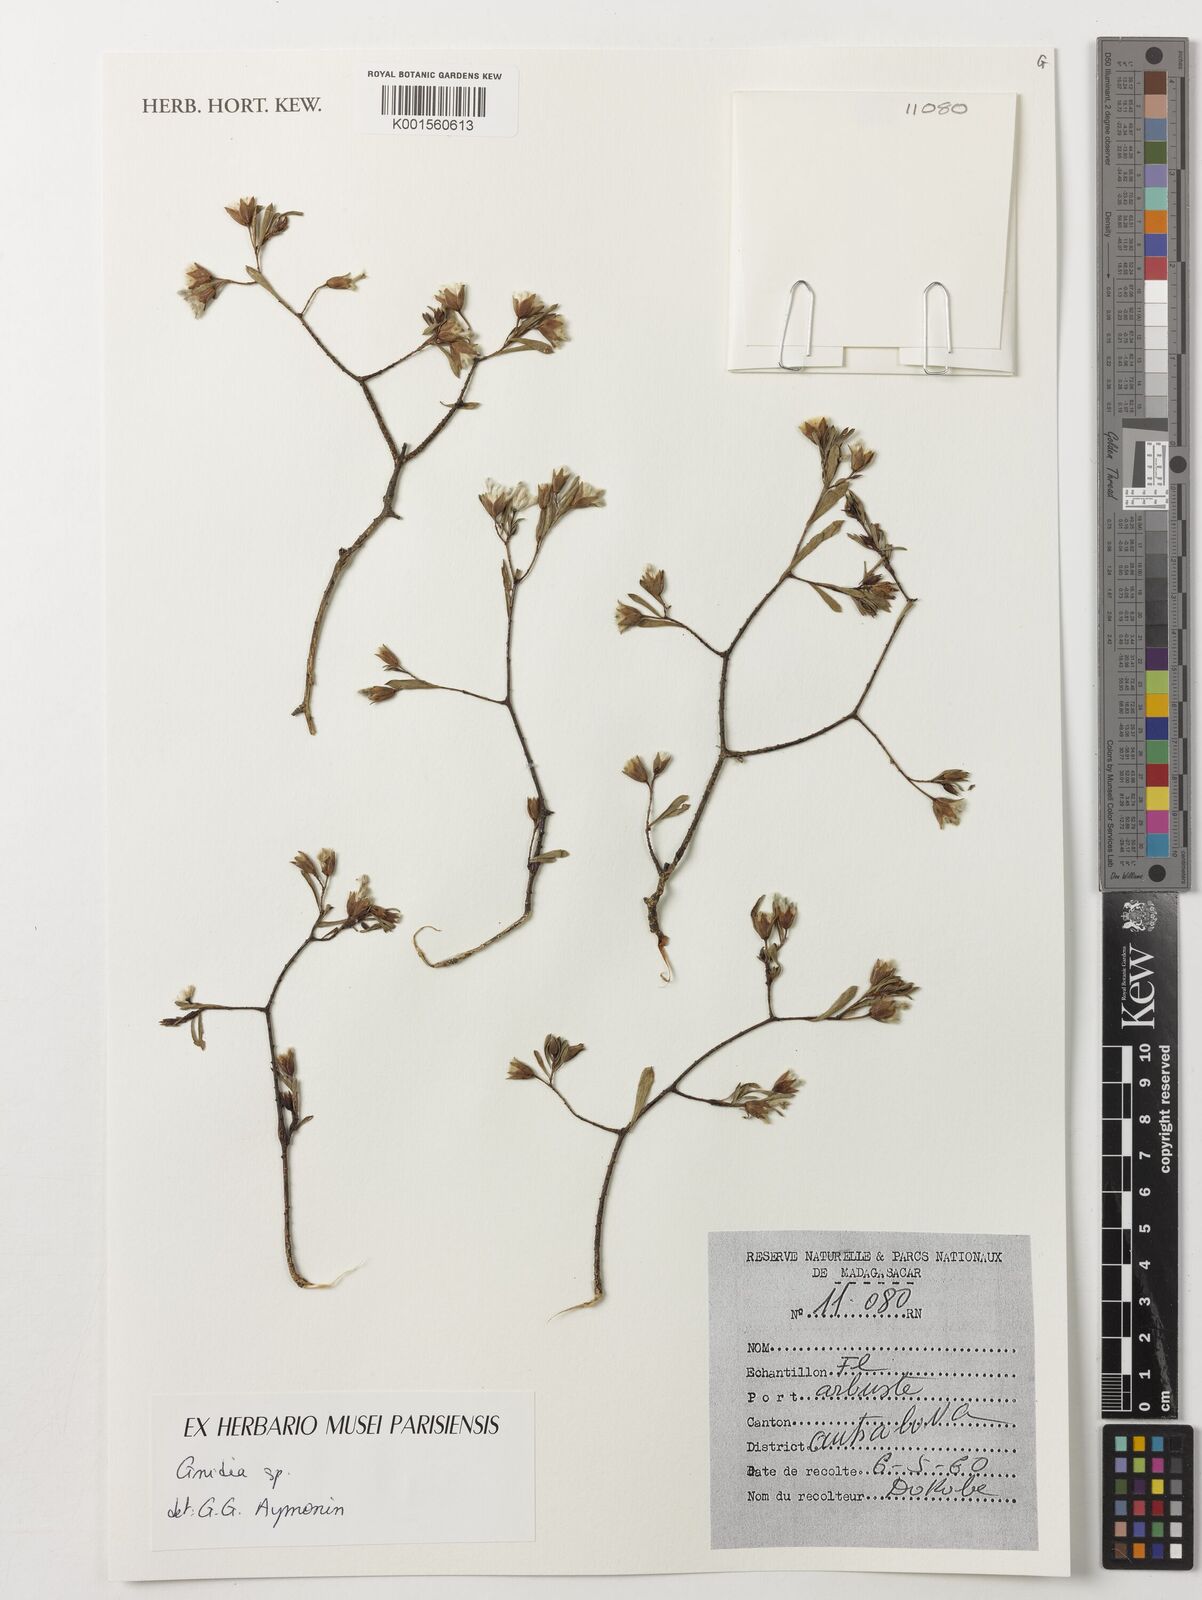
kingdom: Plantae
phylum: Tracheophyta
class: Magnoliopsida
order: Malvales
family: Thymelaeaceae
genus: Gnidia
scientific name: Gnidia
